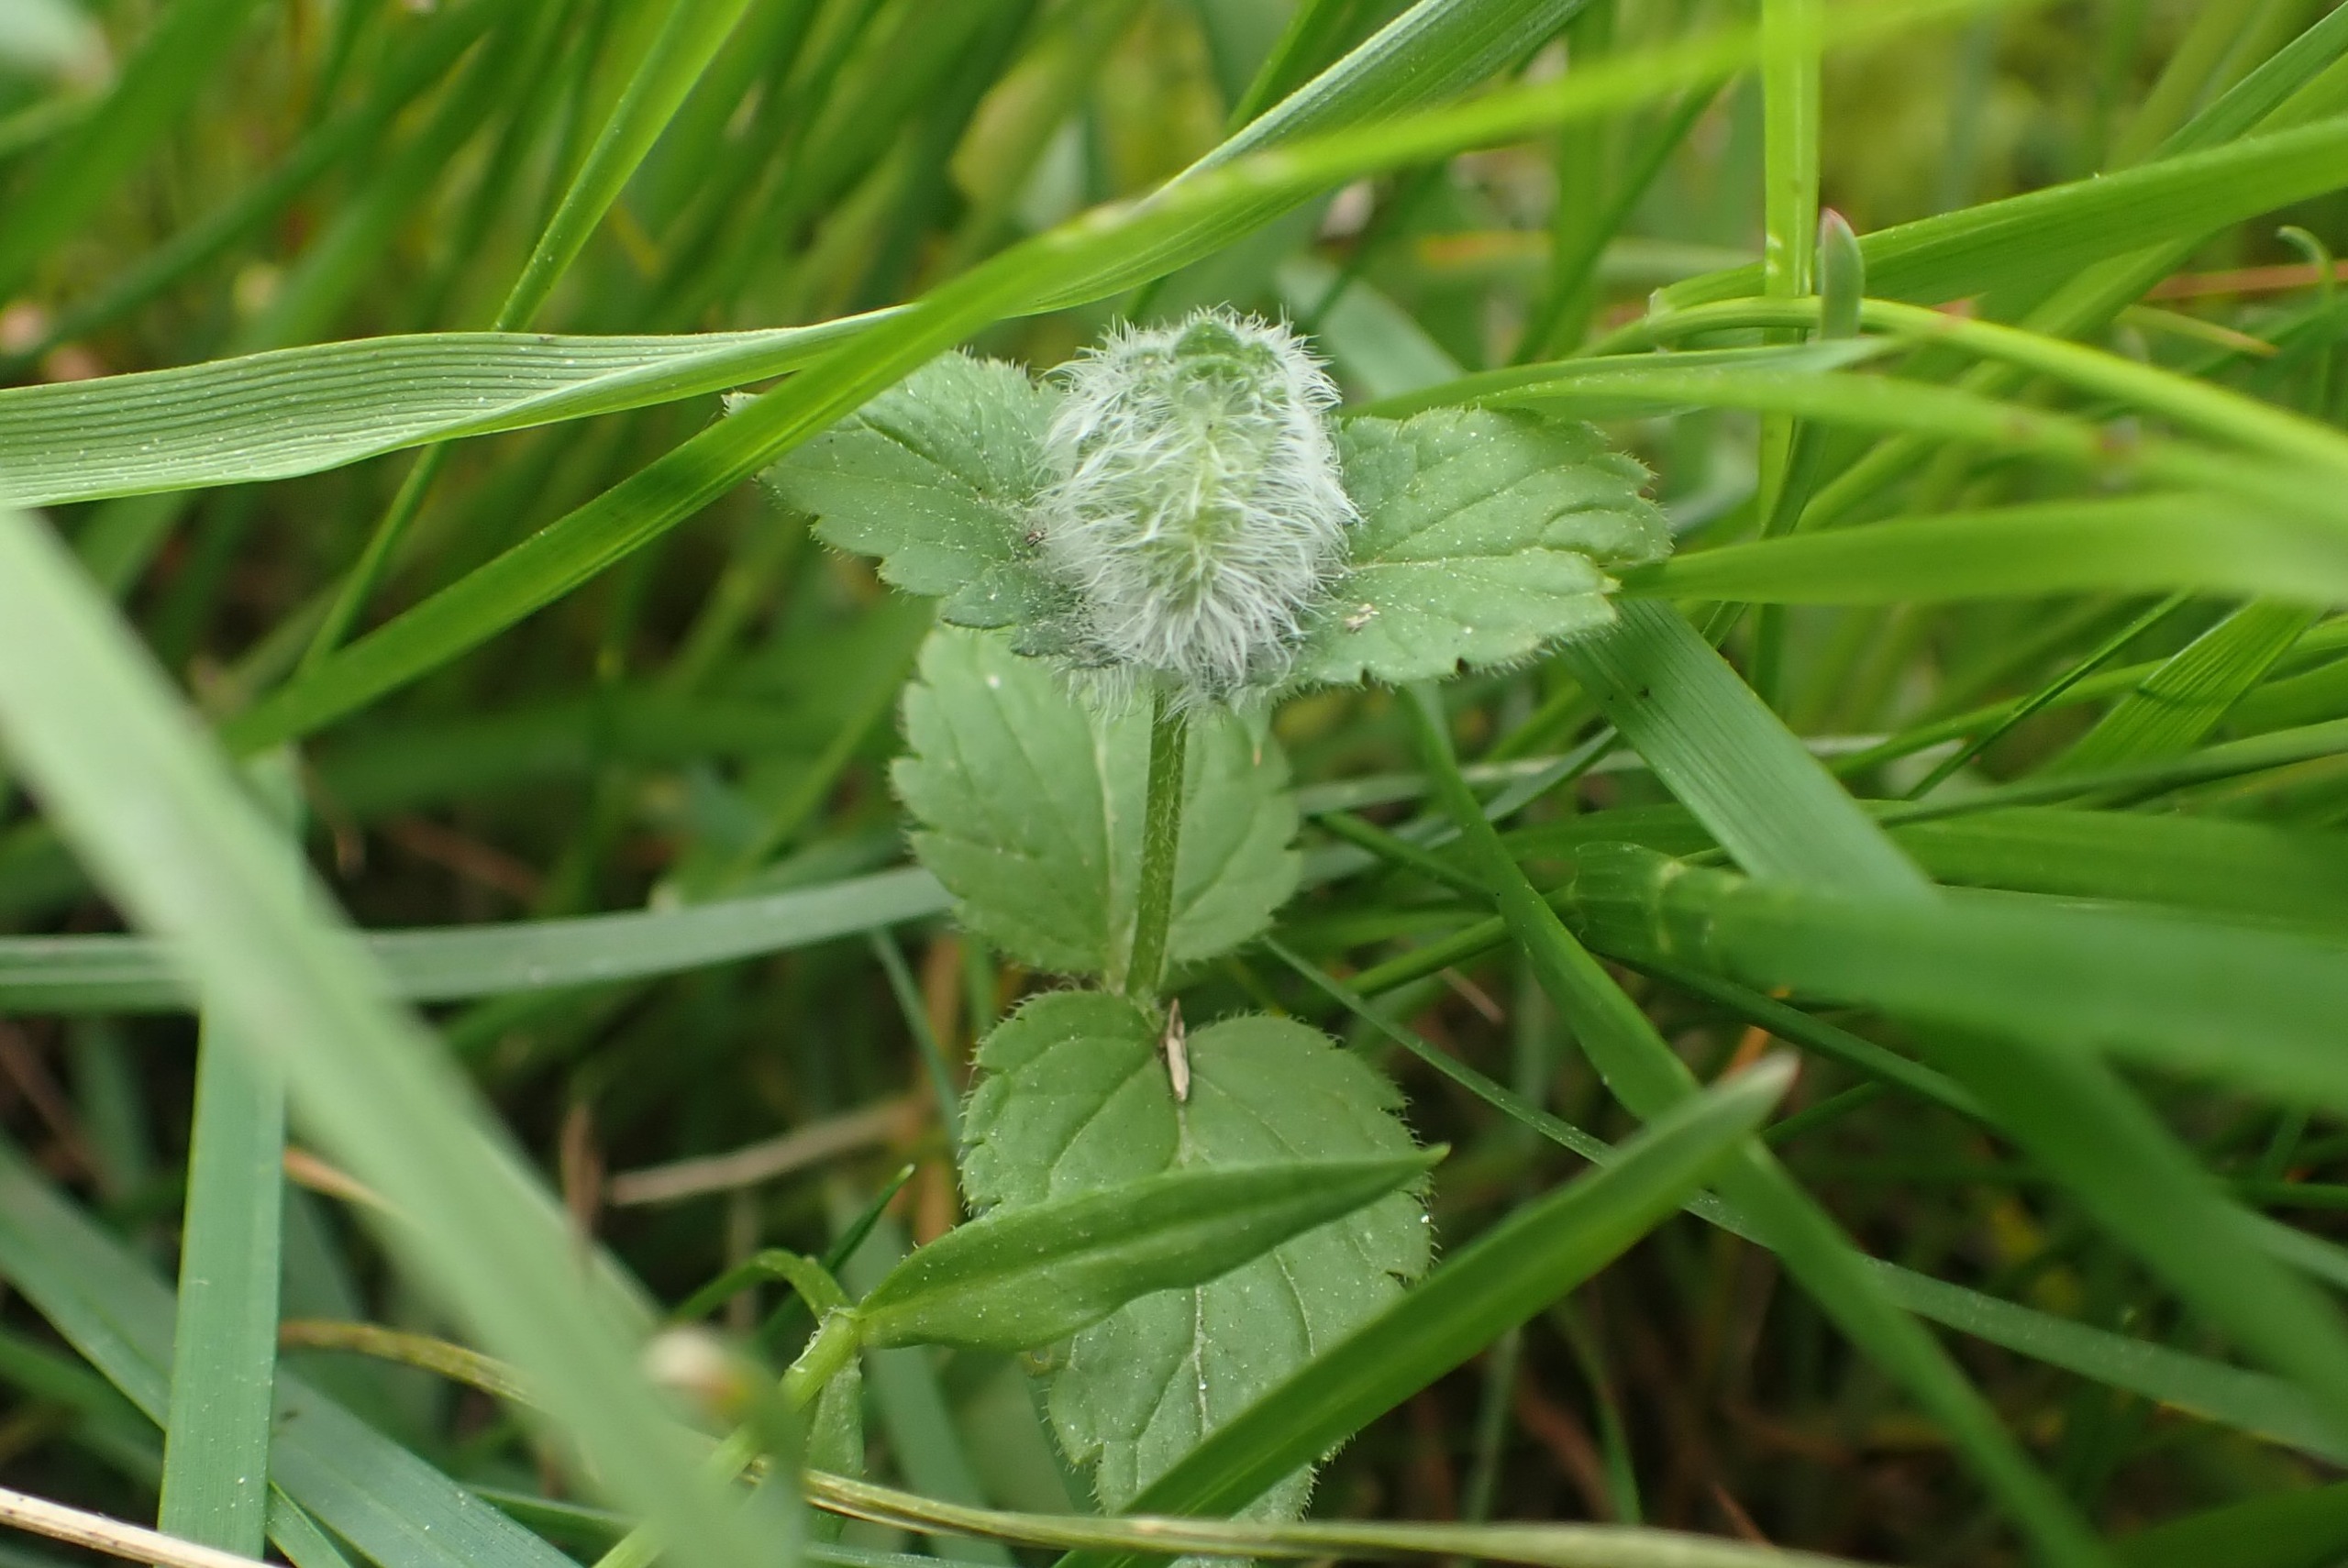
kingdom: Animalia
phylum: Arthropoda
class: Insecta
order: Diptera
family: Cecidomyiidae
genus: Jaapiella
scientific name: Jaapiella veronicae
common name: Ærenprisgalmyg
